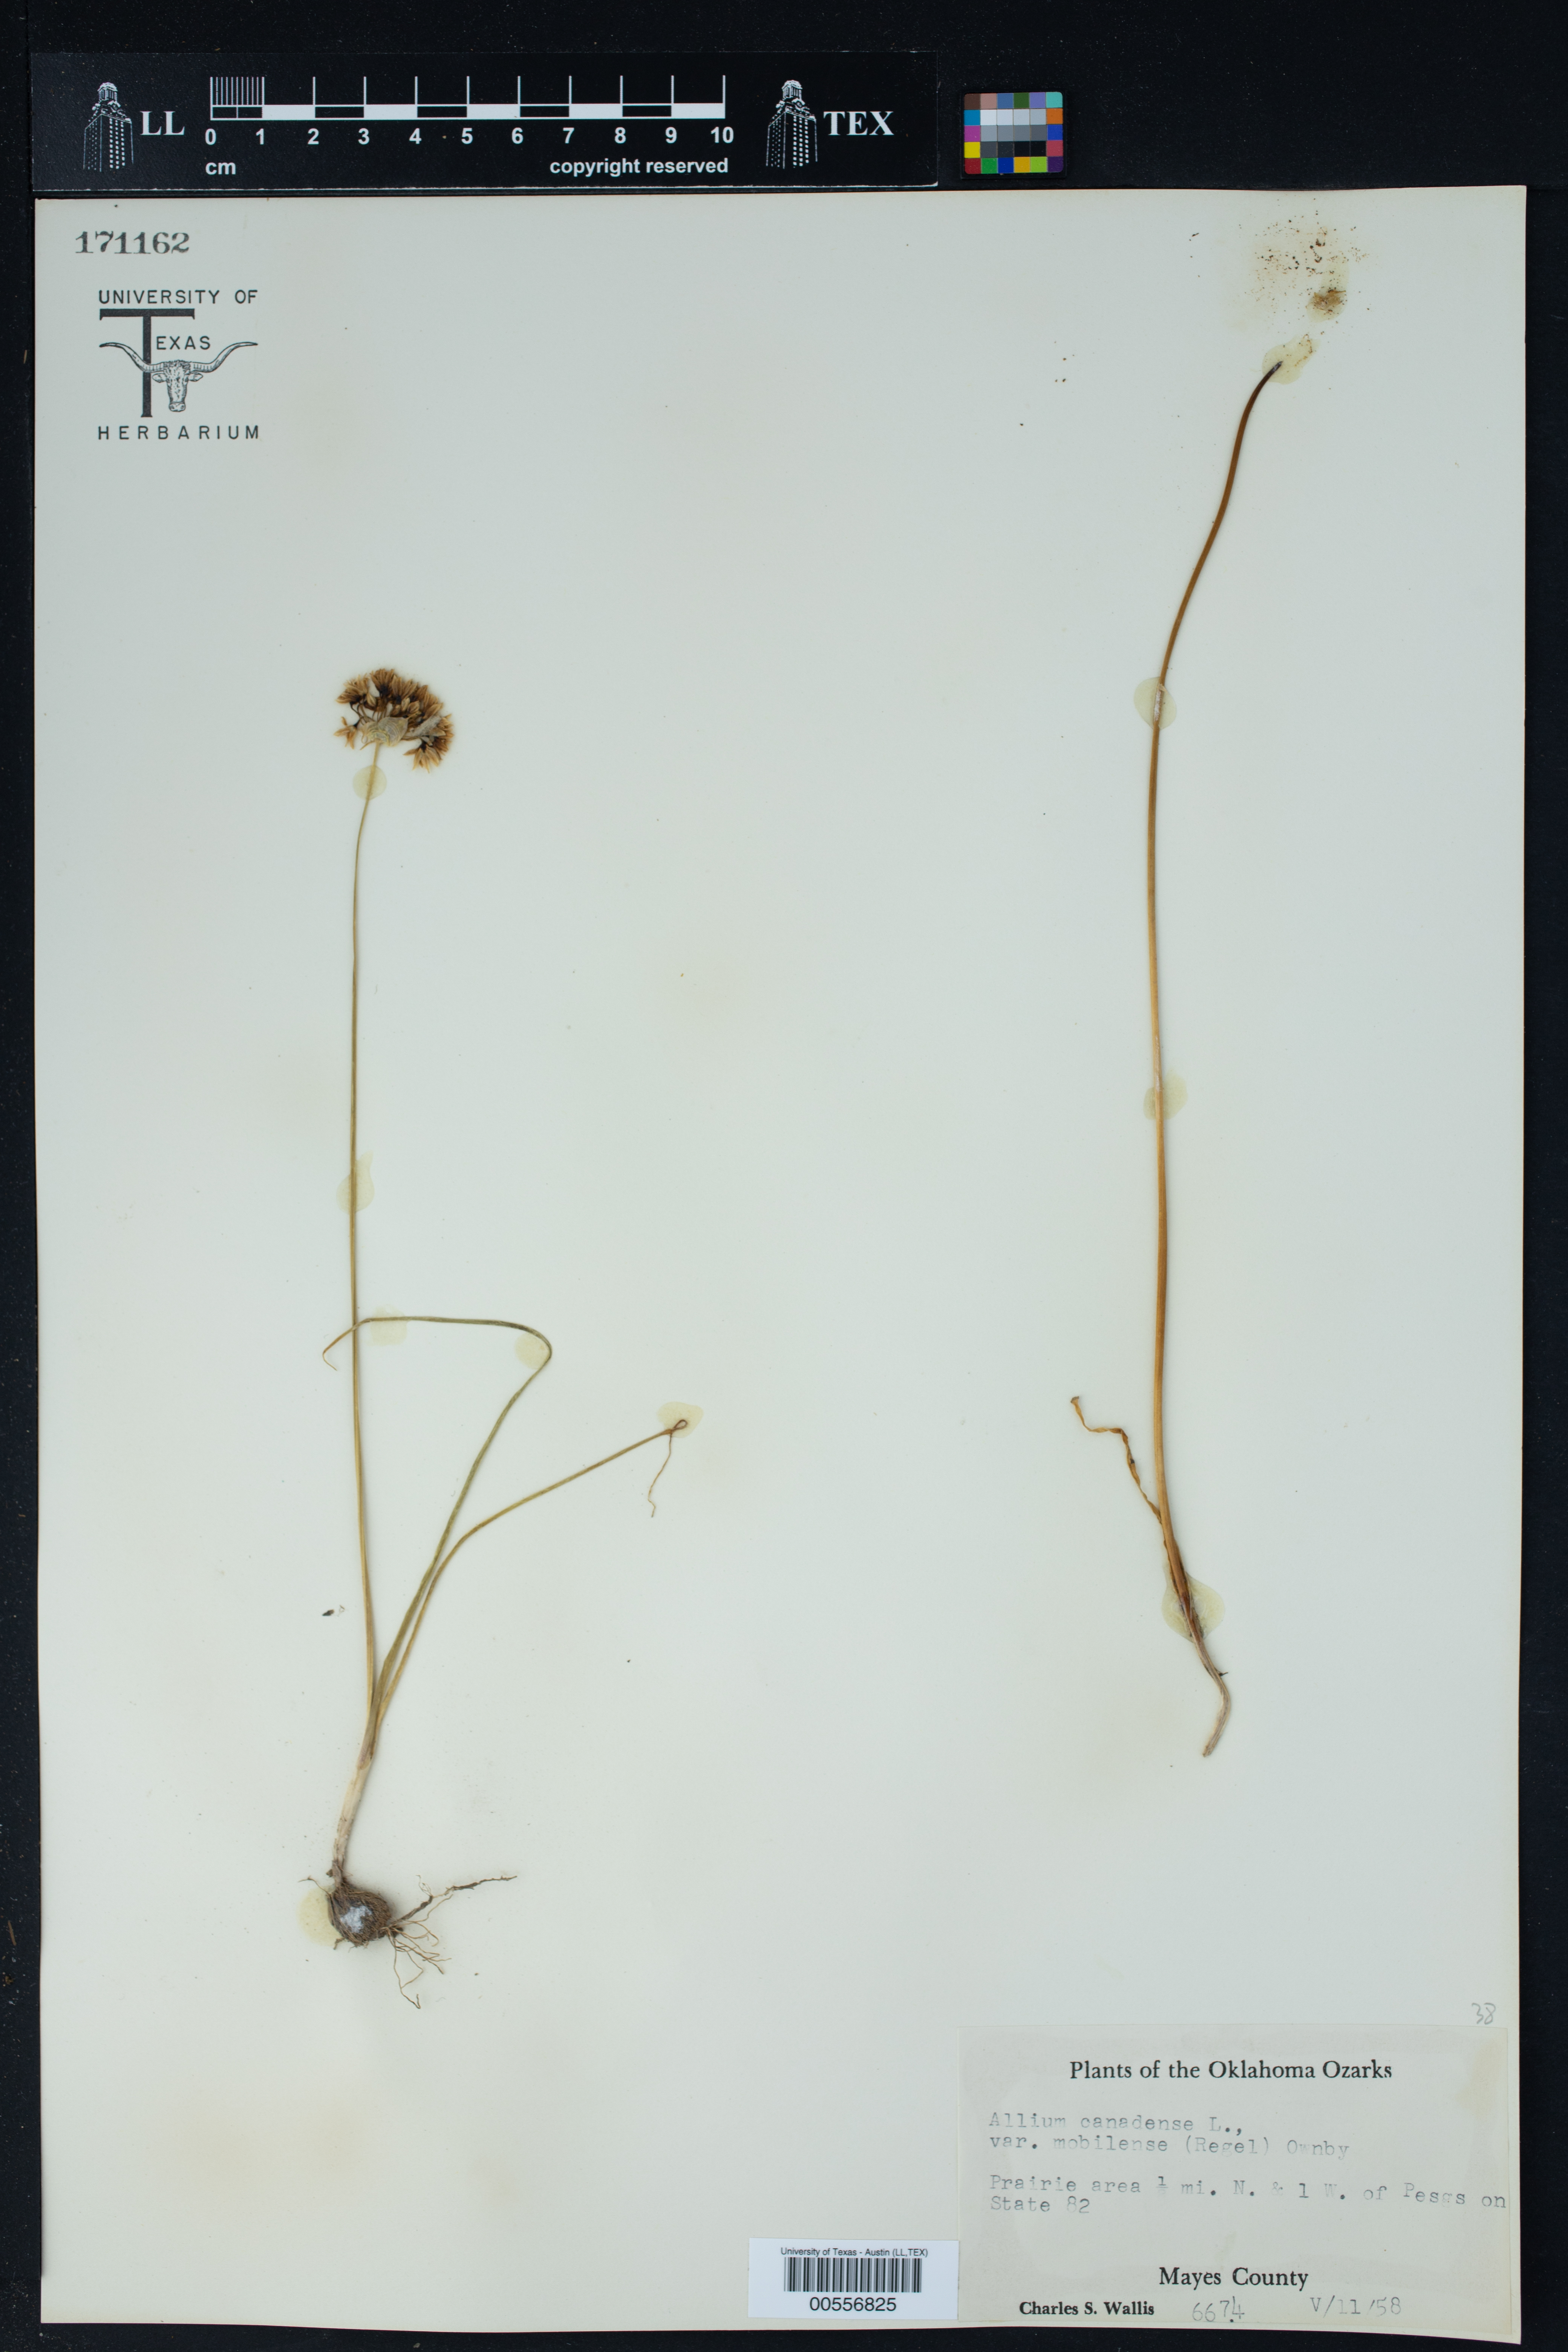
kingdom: Plantae
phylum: Tracheophyta
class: Liliopsida
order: Asparagales
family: Amaryllidaceae
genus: Allium
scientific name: Allium canadense
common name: Meadow garlic
